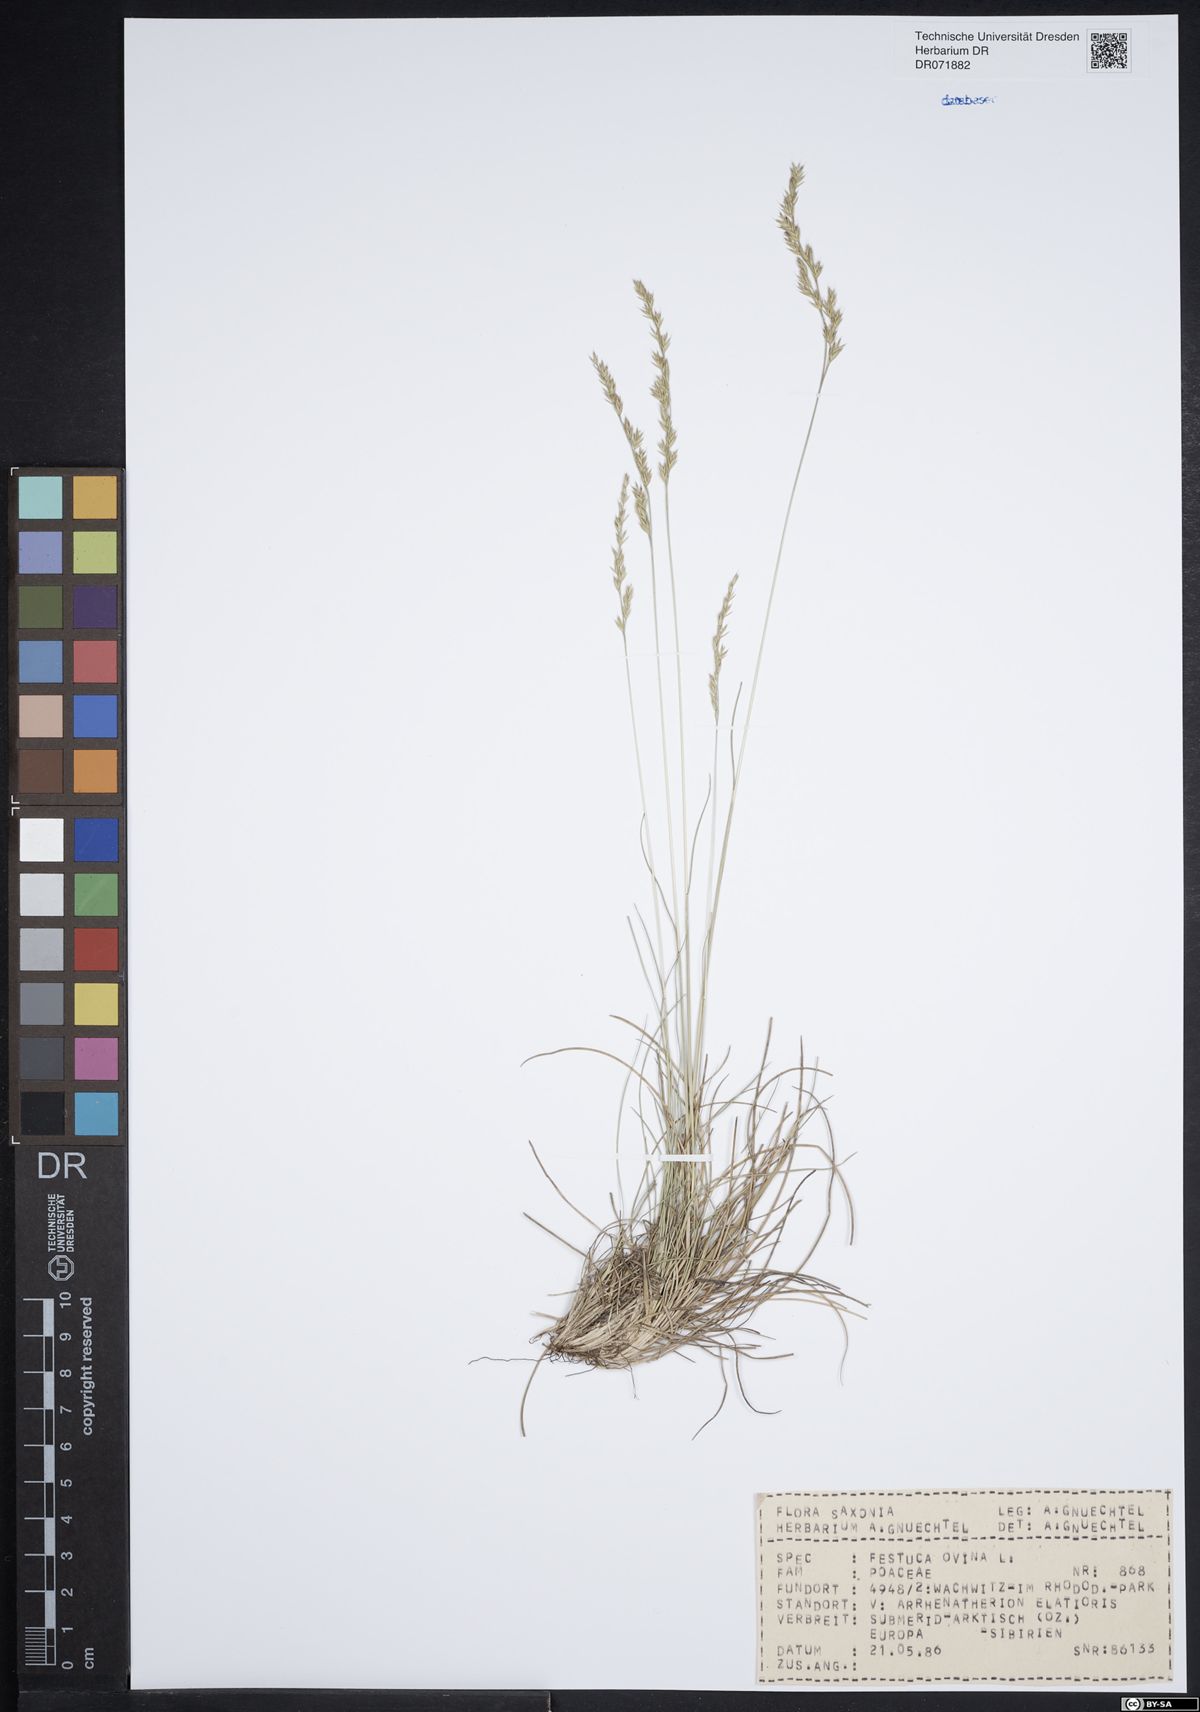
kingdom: Plantae
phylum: Tracheophyta
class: Liliopsida
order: Poales
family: Poaceae
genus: Festuca
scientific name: Festuca ovina
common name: Sheep fescue
